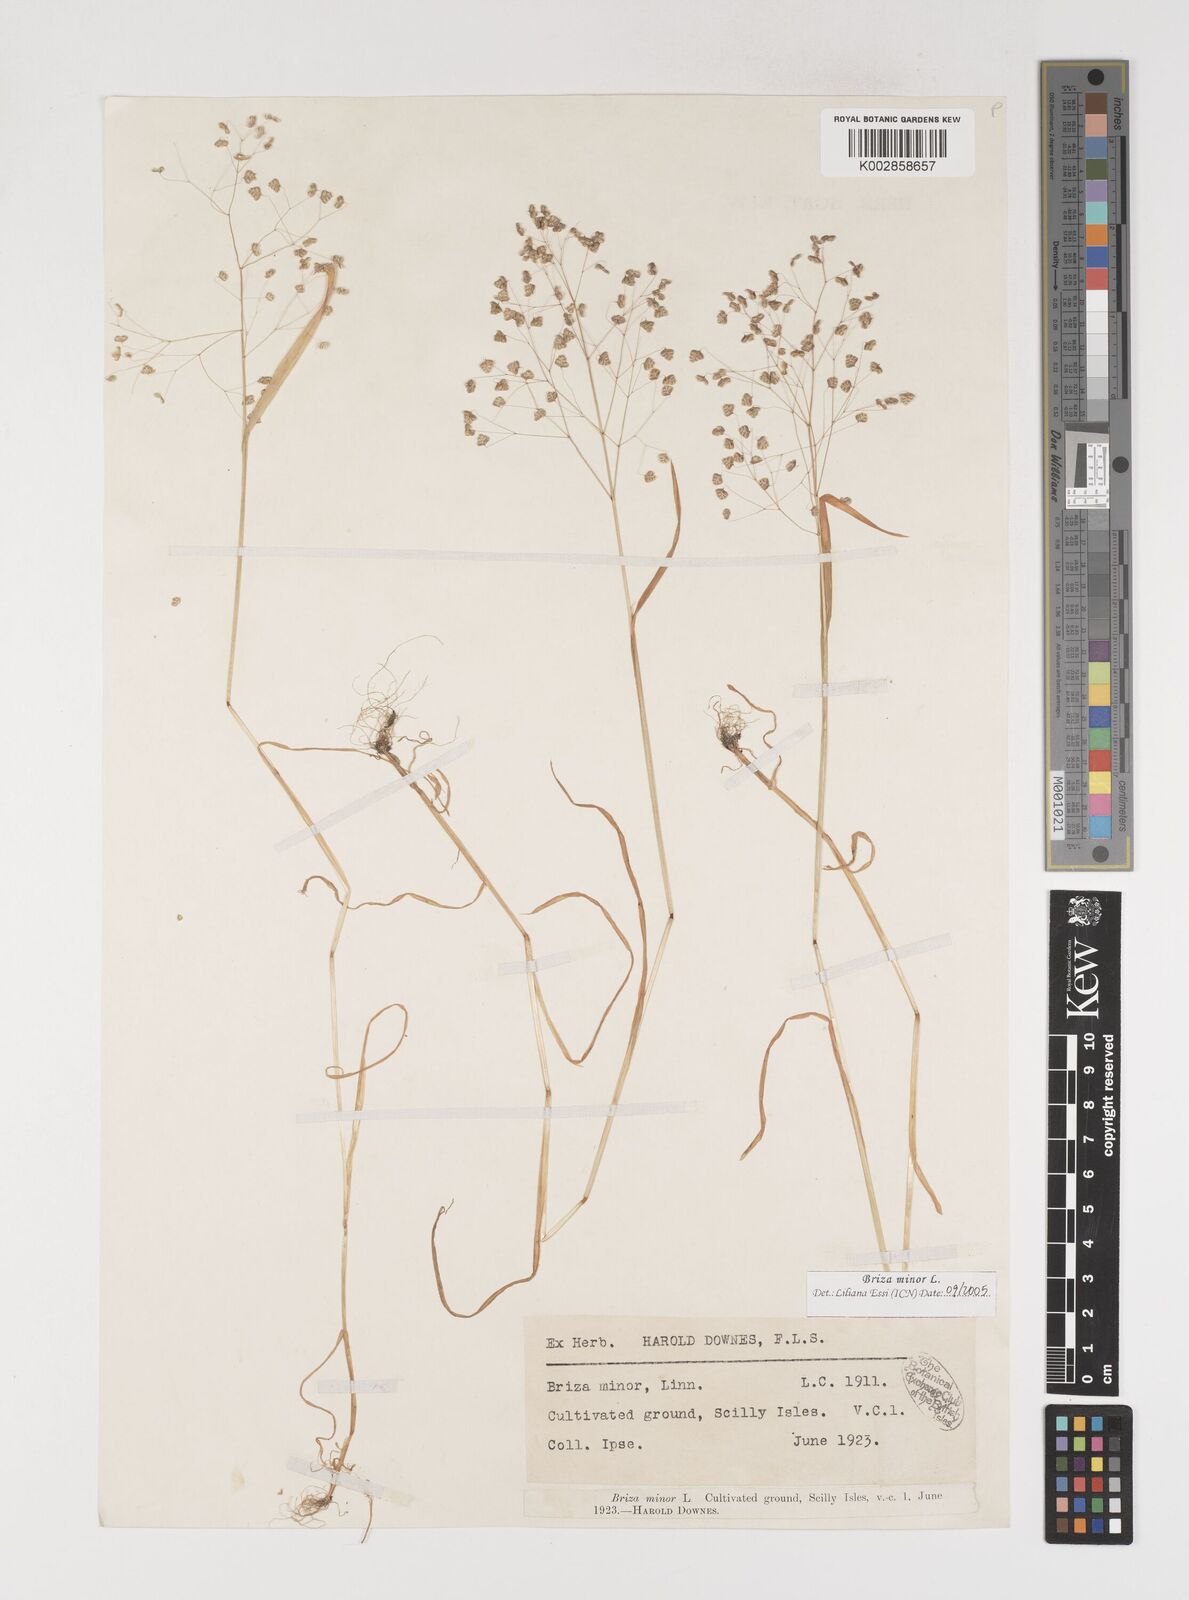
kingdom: Plantae
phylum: Tracheophyta
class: Liliopsida
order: Poales
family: Poaceae
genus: Briza
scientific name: Briza minor
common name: Lesser quaking-grass
